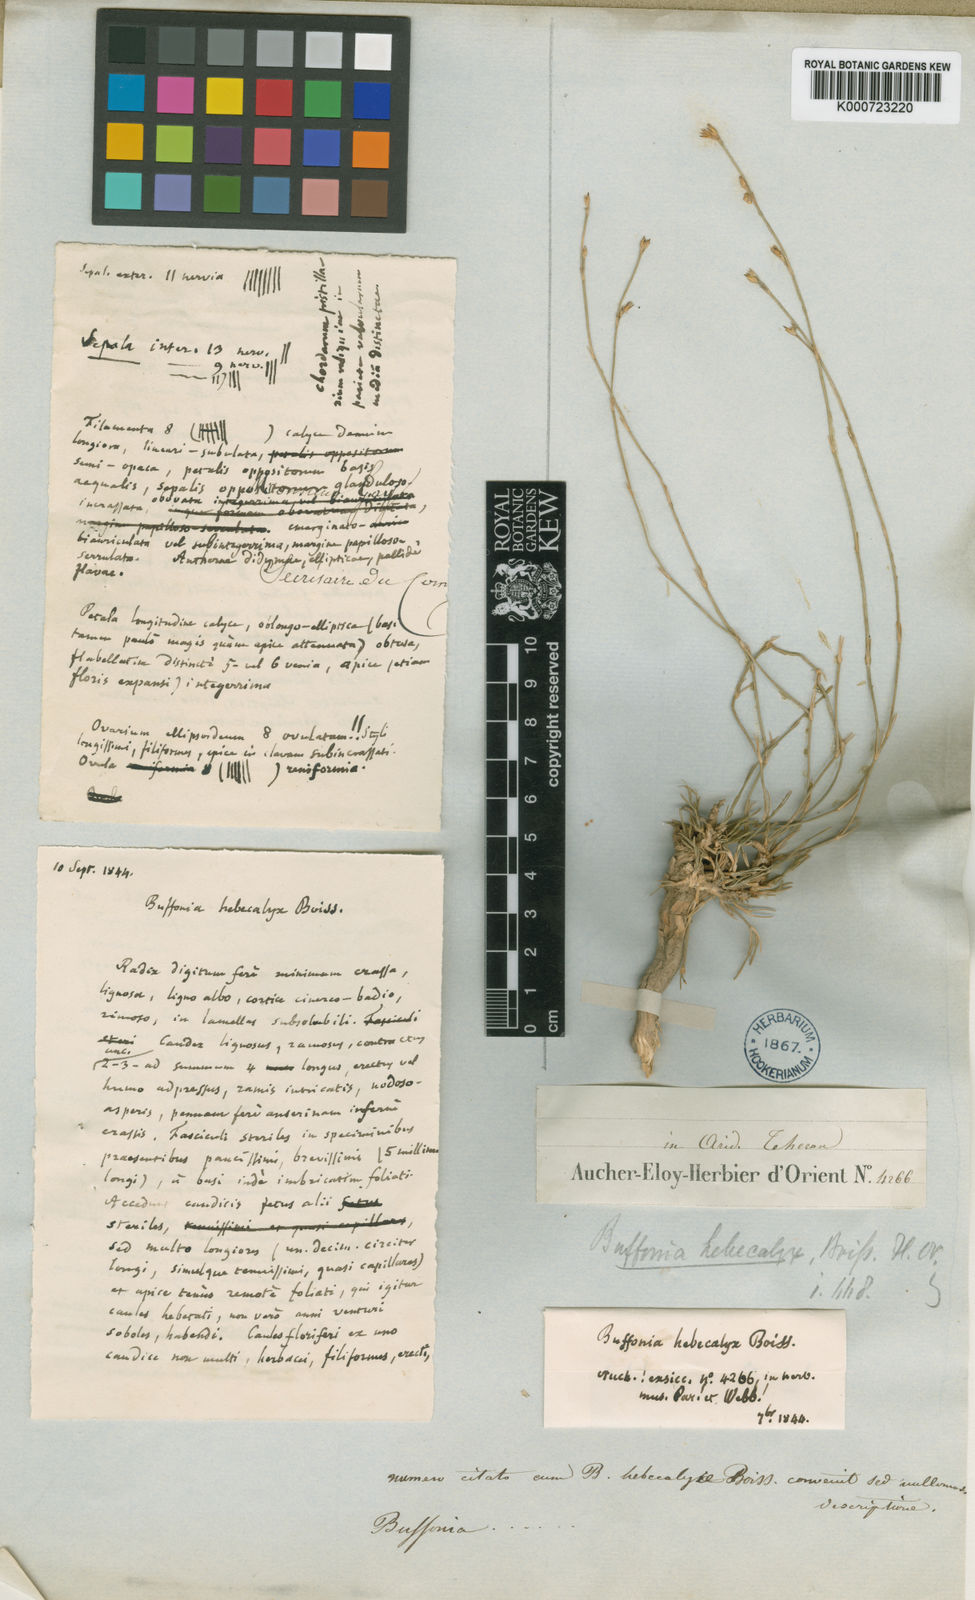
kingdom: Plantae
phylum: Tracheophyta
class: Magnoliopsida
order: Caryophyllales
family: Caryophyllaceae
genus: Bufonia
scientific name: Bufonia hebecalyx
